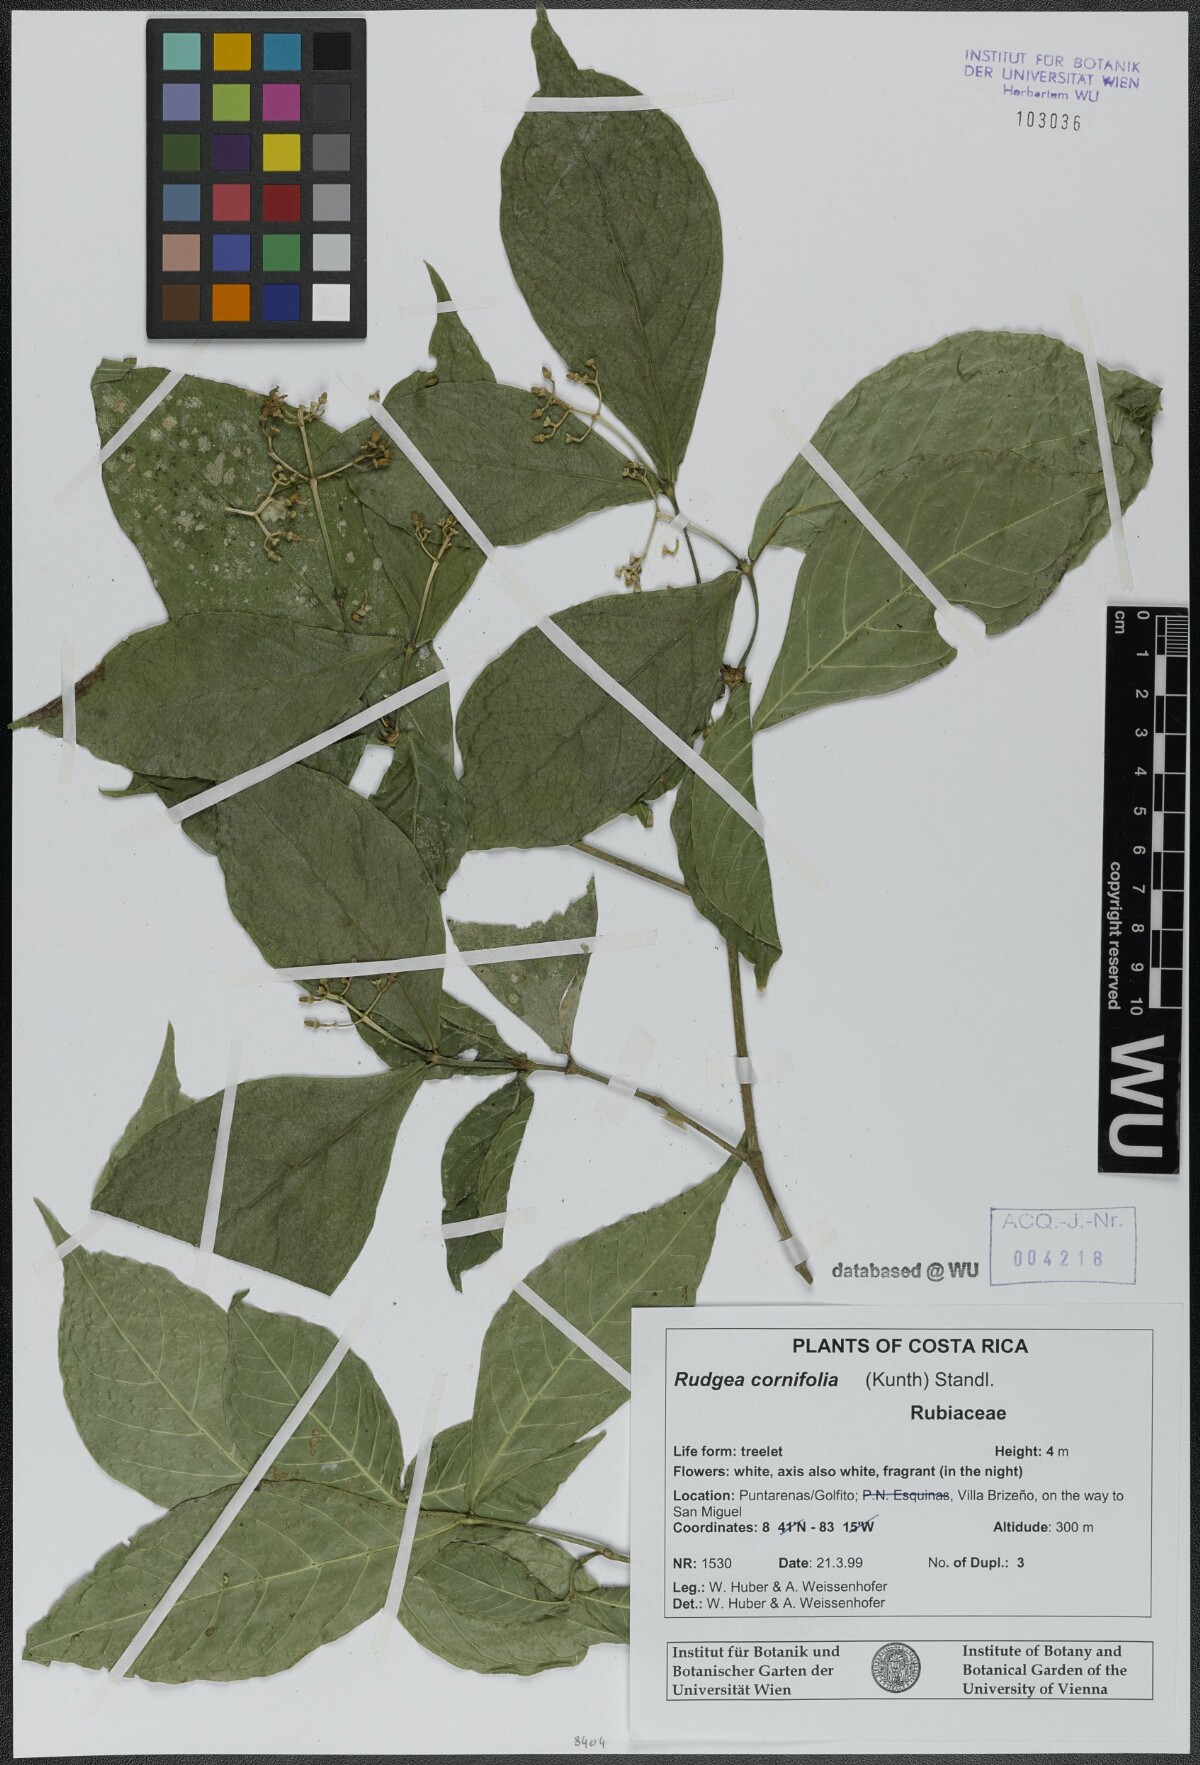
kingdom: Plantae
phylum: Tracheophyta
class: Magnoliopsida
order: Gentianales
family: Rubiaceae
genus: Rudgea
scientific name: Rudgea cornifolia
